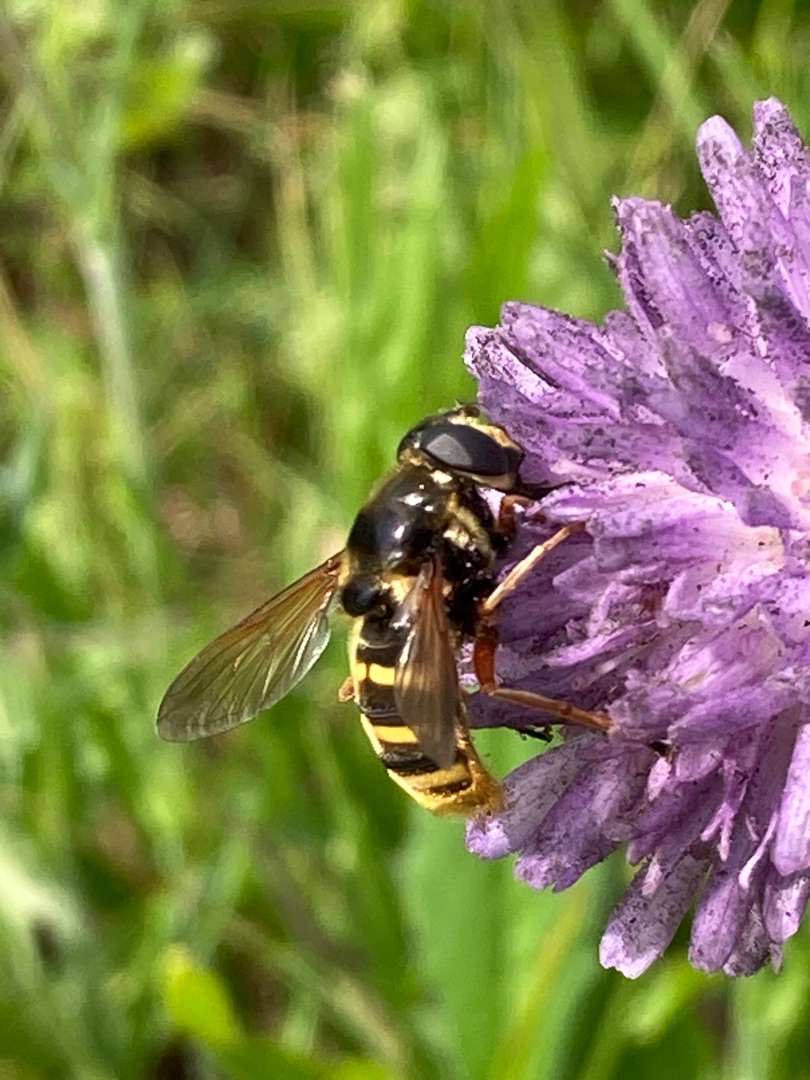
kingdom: Animalia
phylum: Arthropoda
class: Insecta
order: Diptera
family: Syrphidae
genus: Sericomyia
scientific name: Sericomyia silentis
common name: Tørve-silkesvirreflue
